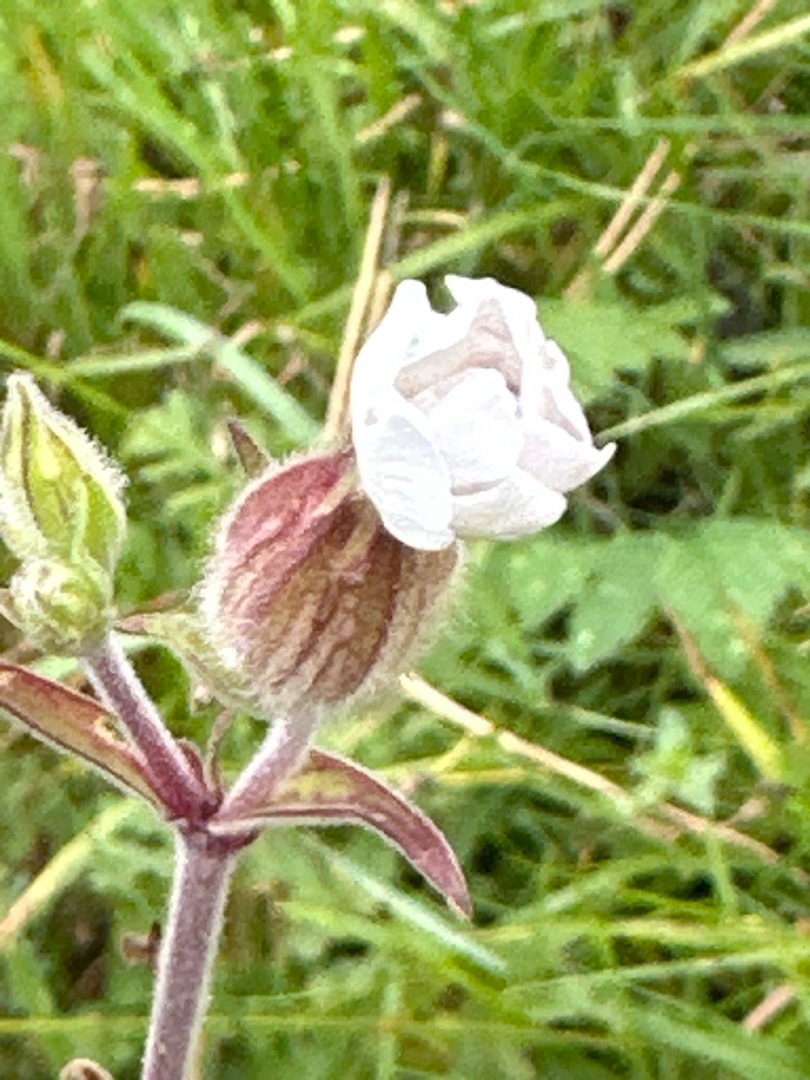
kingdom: Plantae
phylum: Tracheophyta
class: Magnoliopsida
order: Caryophyllales
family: Caryophyllaceae
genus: Silene
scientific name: Silene latifolia
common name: Aftenpragtstjerne
